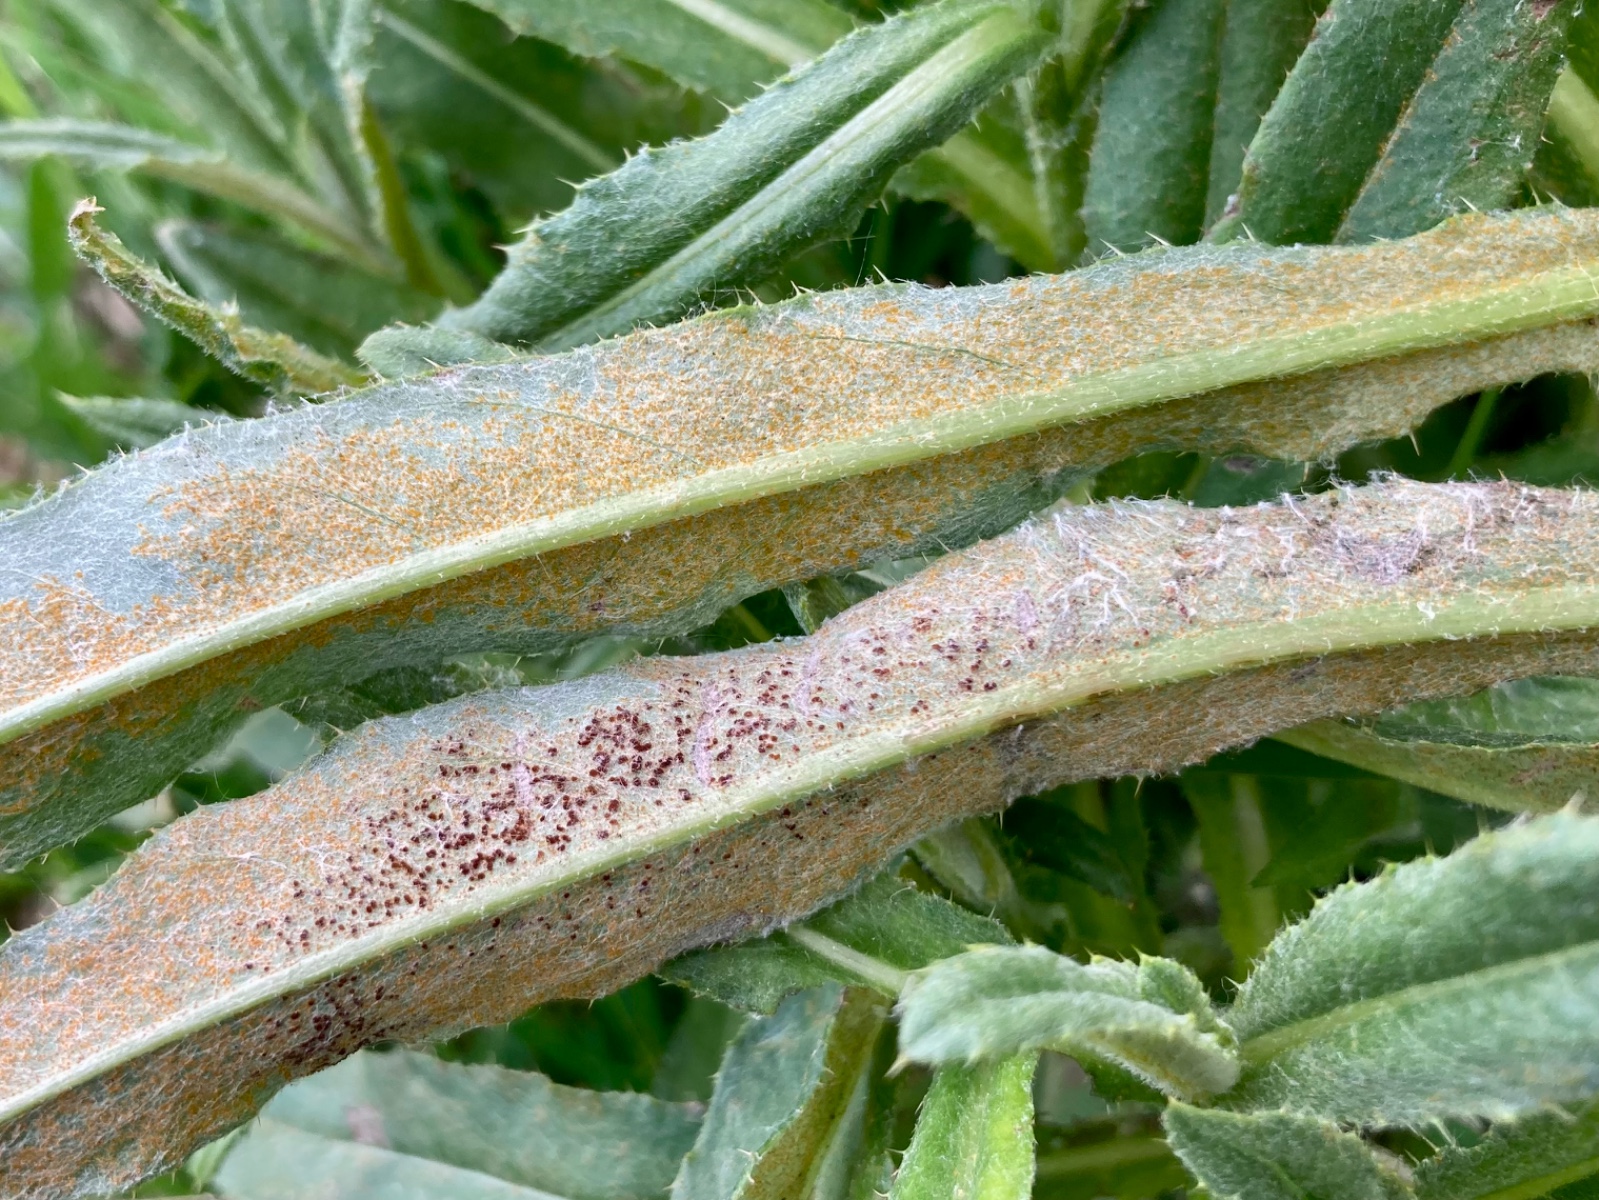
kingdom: Fungi
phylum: Basidiomycota
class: Pucciniomycetes
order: Pucciniales
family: Pucciniaceae
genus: Puccinia
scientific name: Puccinia suaveolens
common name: tidsel-tvecellerust
